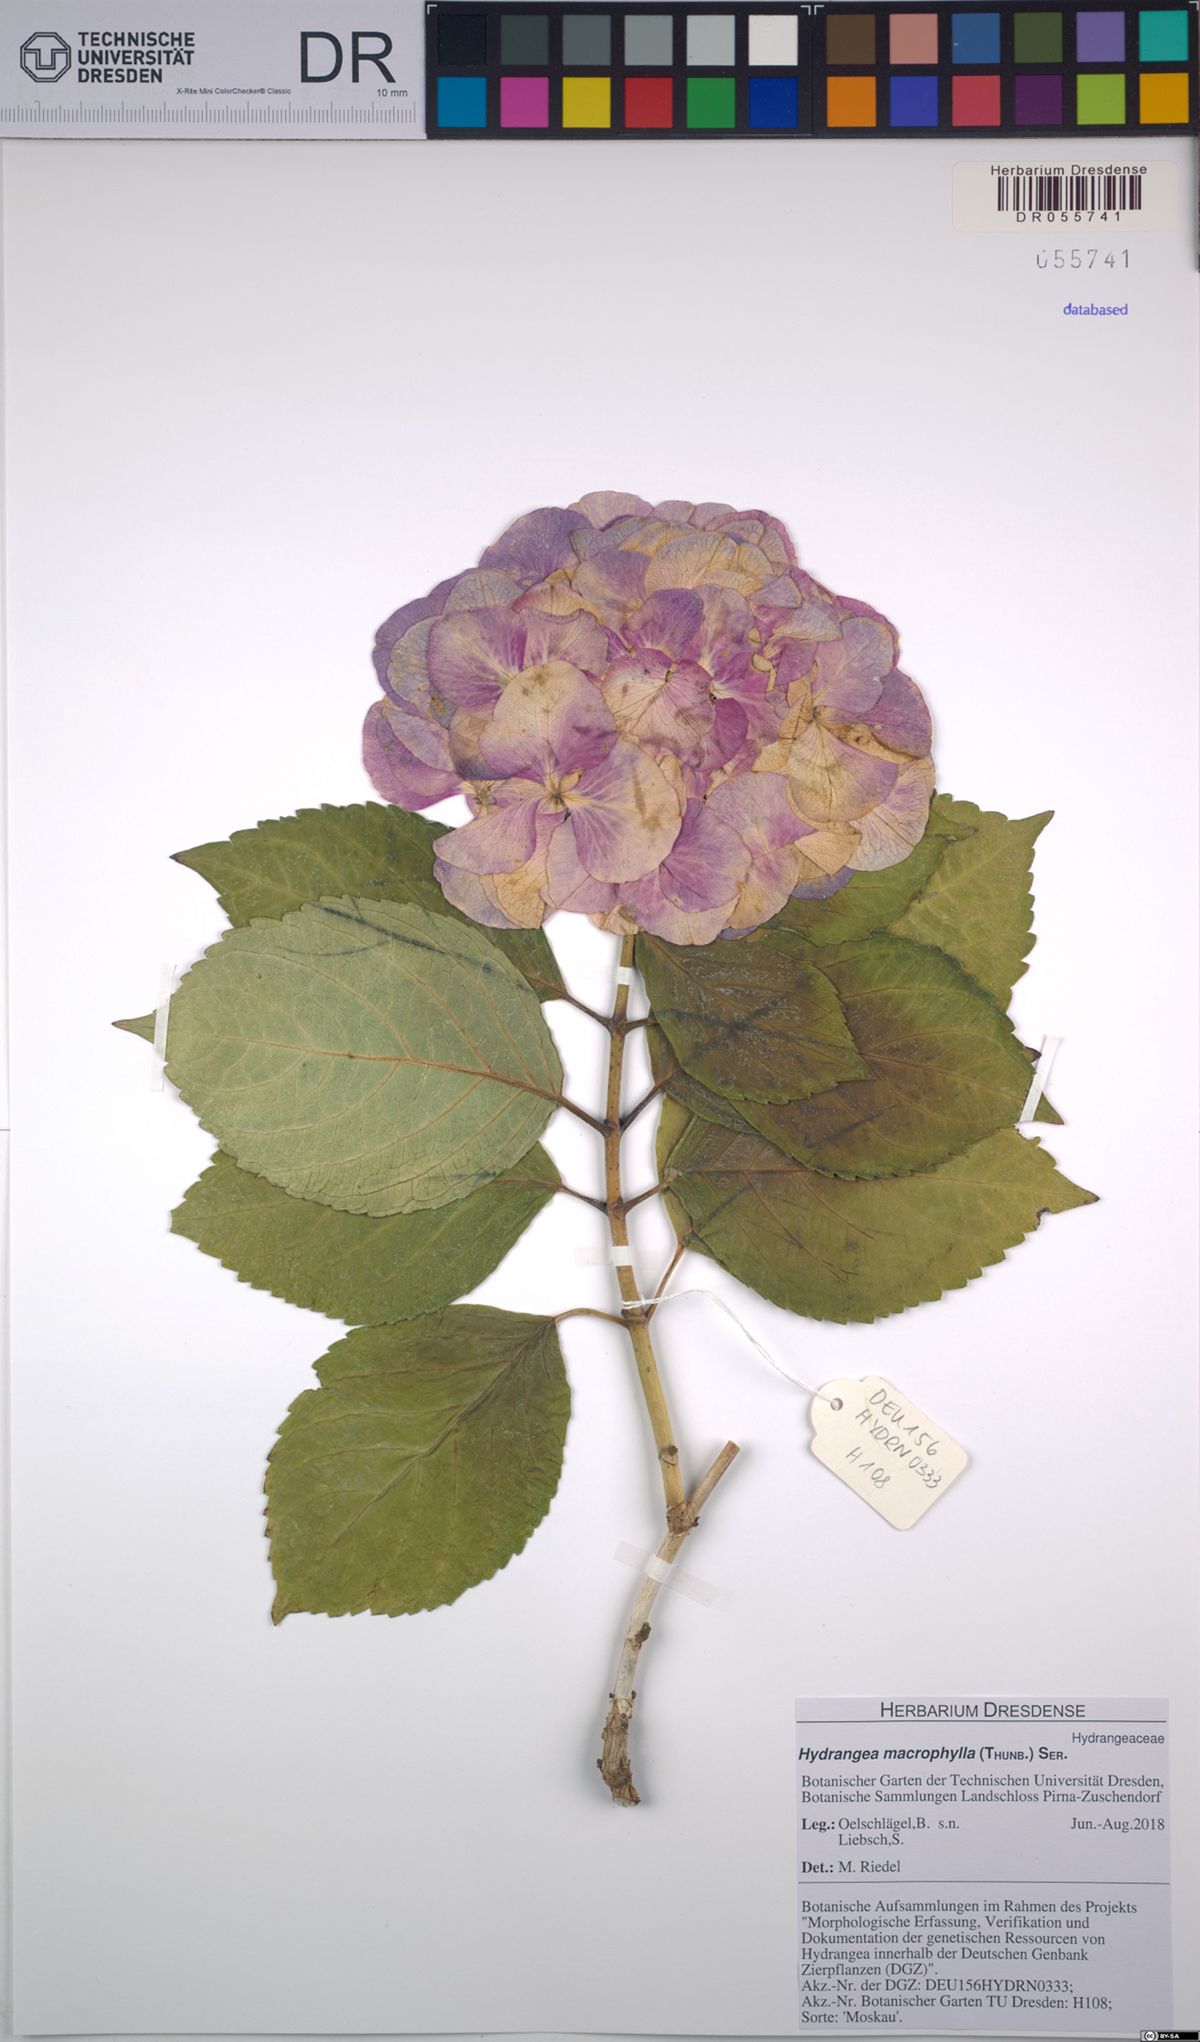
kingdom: Plantae
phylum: Tracheophyta
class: Magnoliopsida
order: Cornales
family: Hydrangeaceae
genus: Hydrangea
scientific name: Hydrangea macrophylla
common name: Hydrangea
